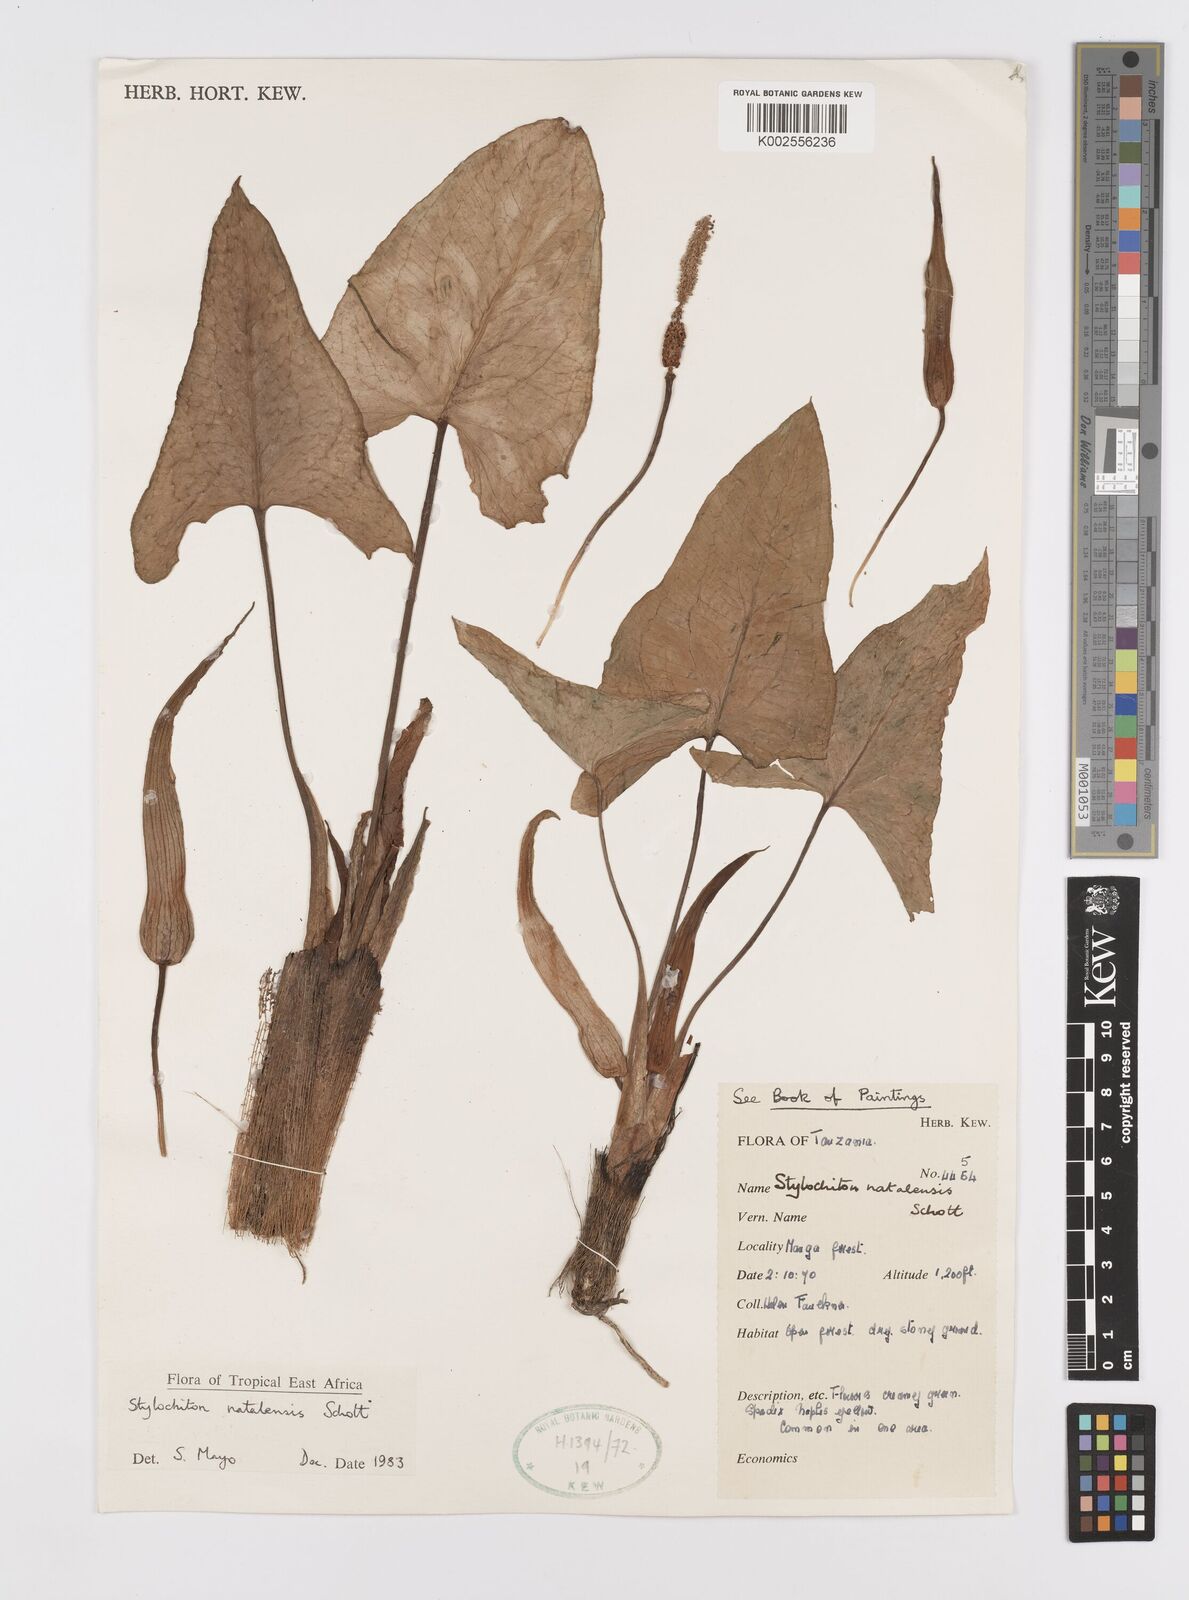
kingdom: Plantae
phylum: Tracheophyta
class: Liliopsida
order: Alismatales
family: Araceae
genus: Stylochaeton
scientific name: Stylochaeton natalense
